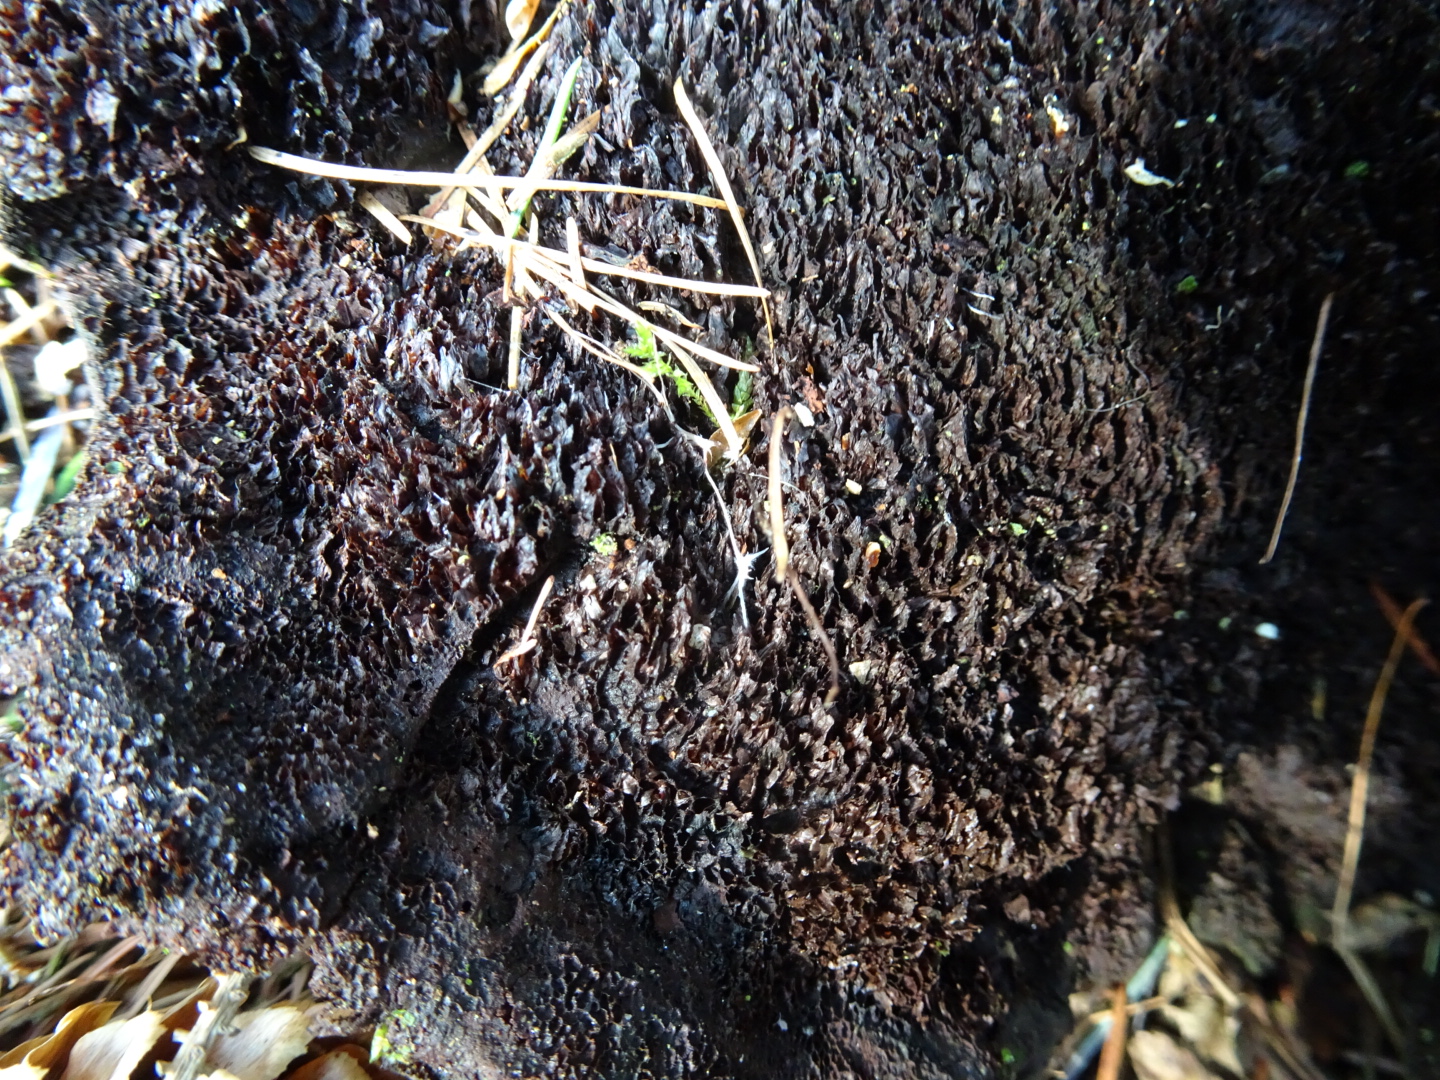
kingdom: Fungi
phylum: Basidiomycota
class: Agaricomycetes
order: Polyporales
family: Laetiporaceae
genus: Phaeolus
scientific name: Phaeolus schweinitzii
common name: brunporesvamp
